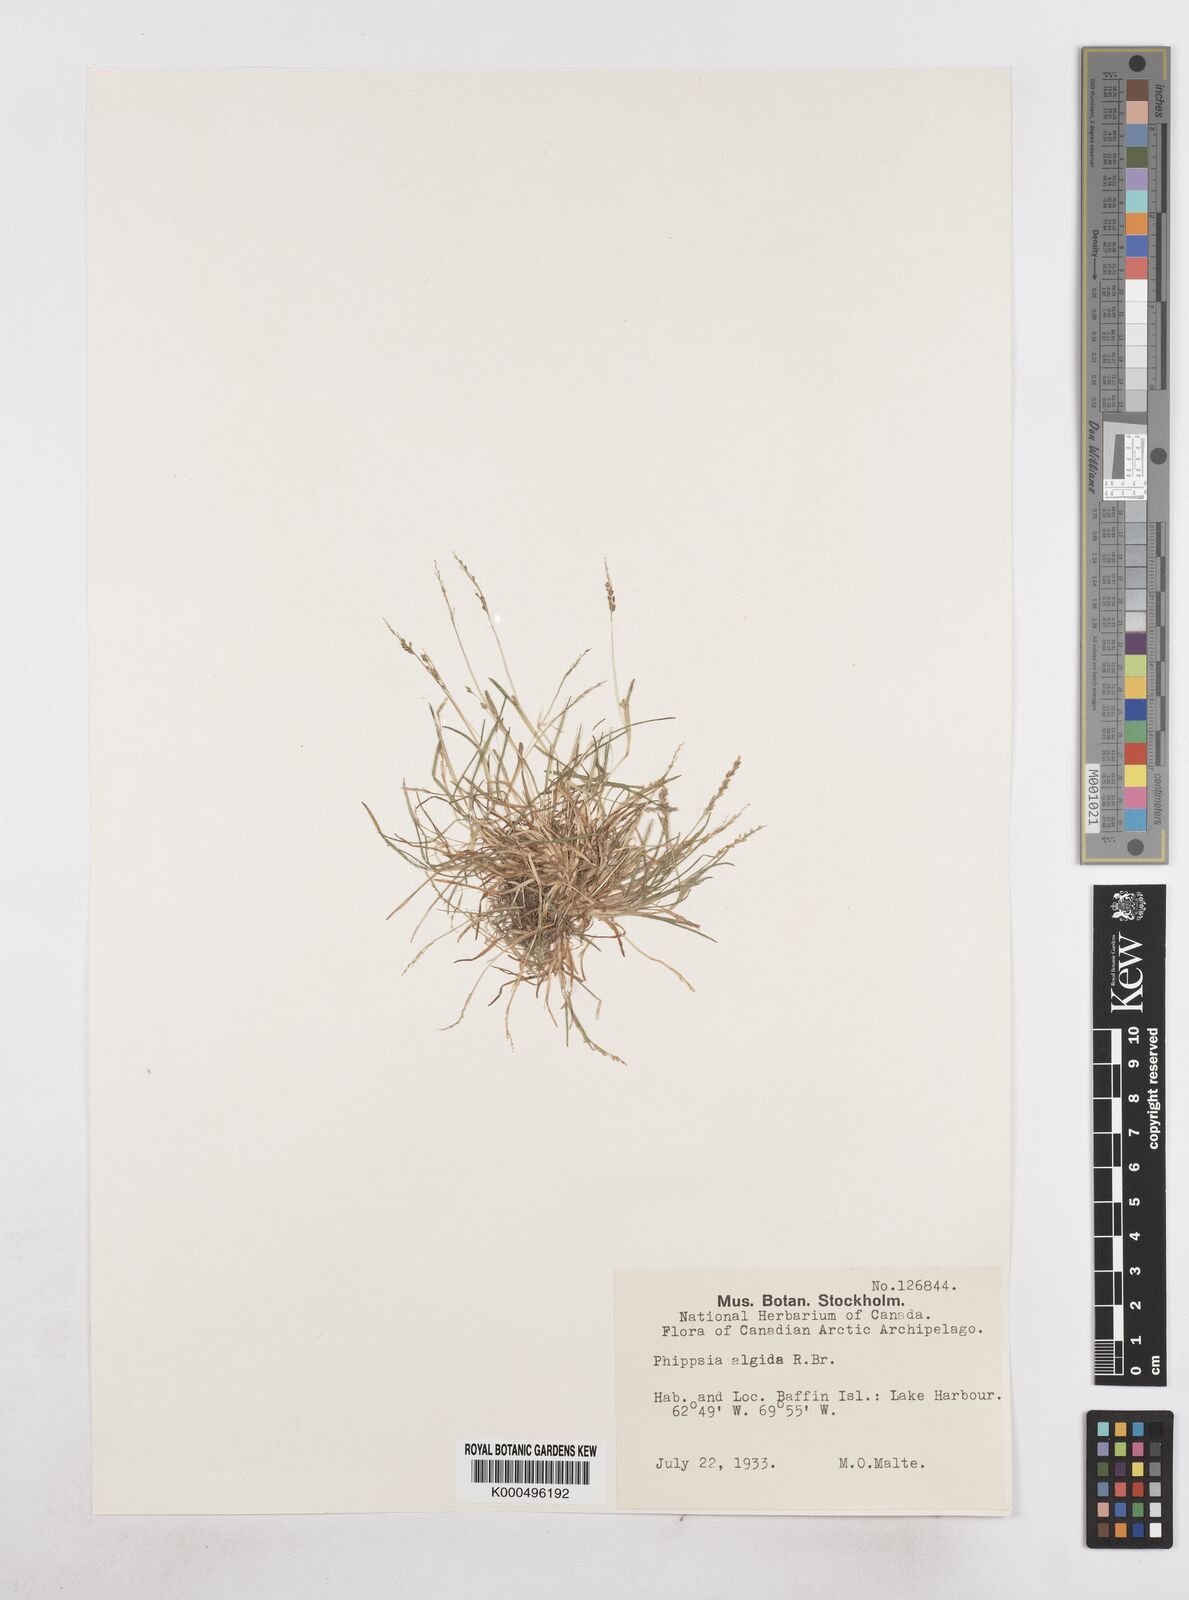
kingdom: Plantae
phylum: Tracheophyta
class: Liliopsida
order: Poales
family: Poaceae
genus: Phippsia
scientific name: Phippsia algida
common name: Ice grass
